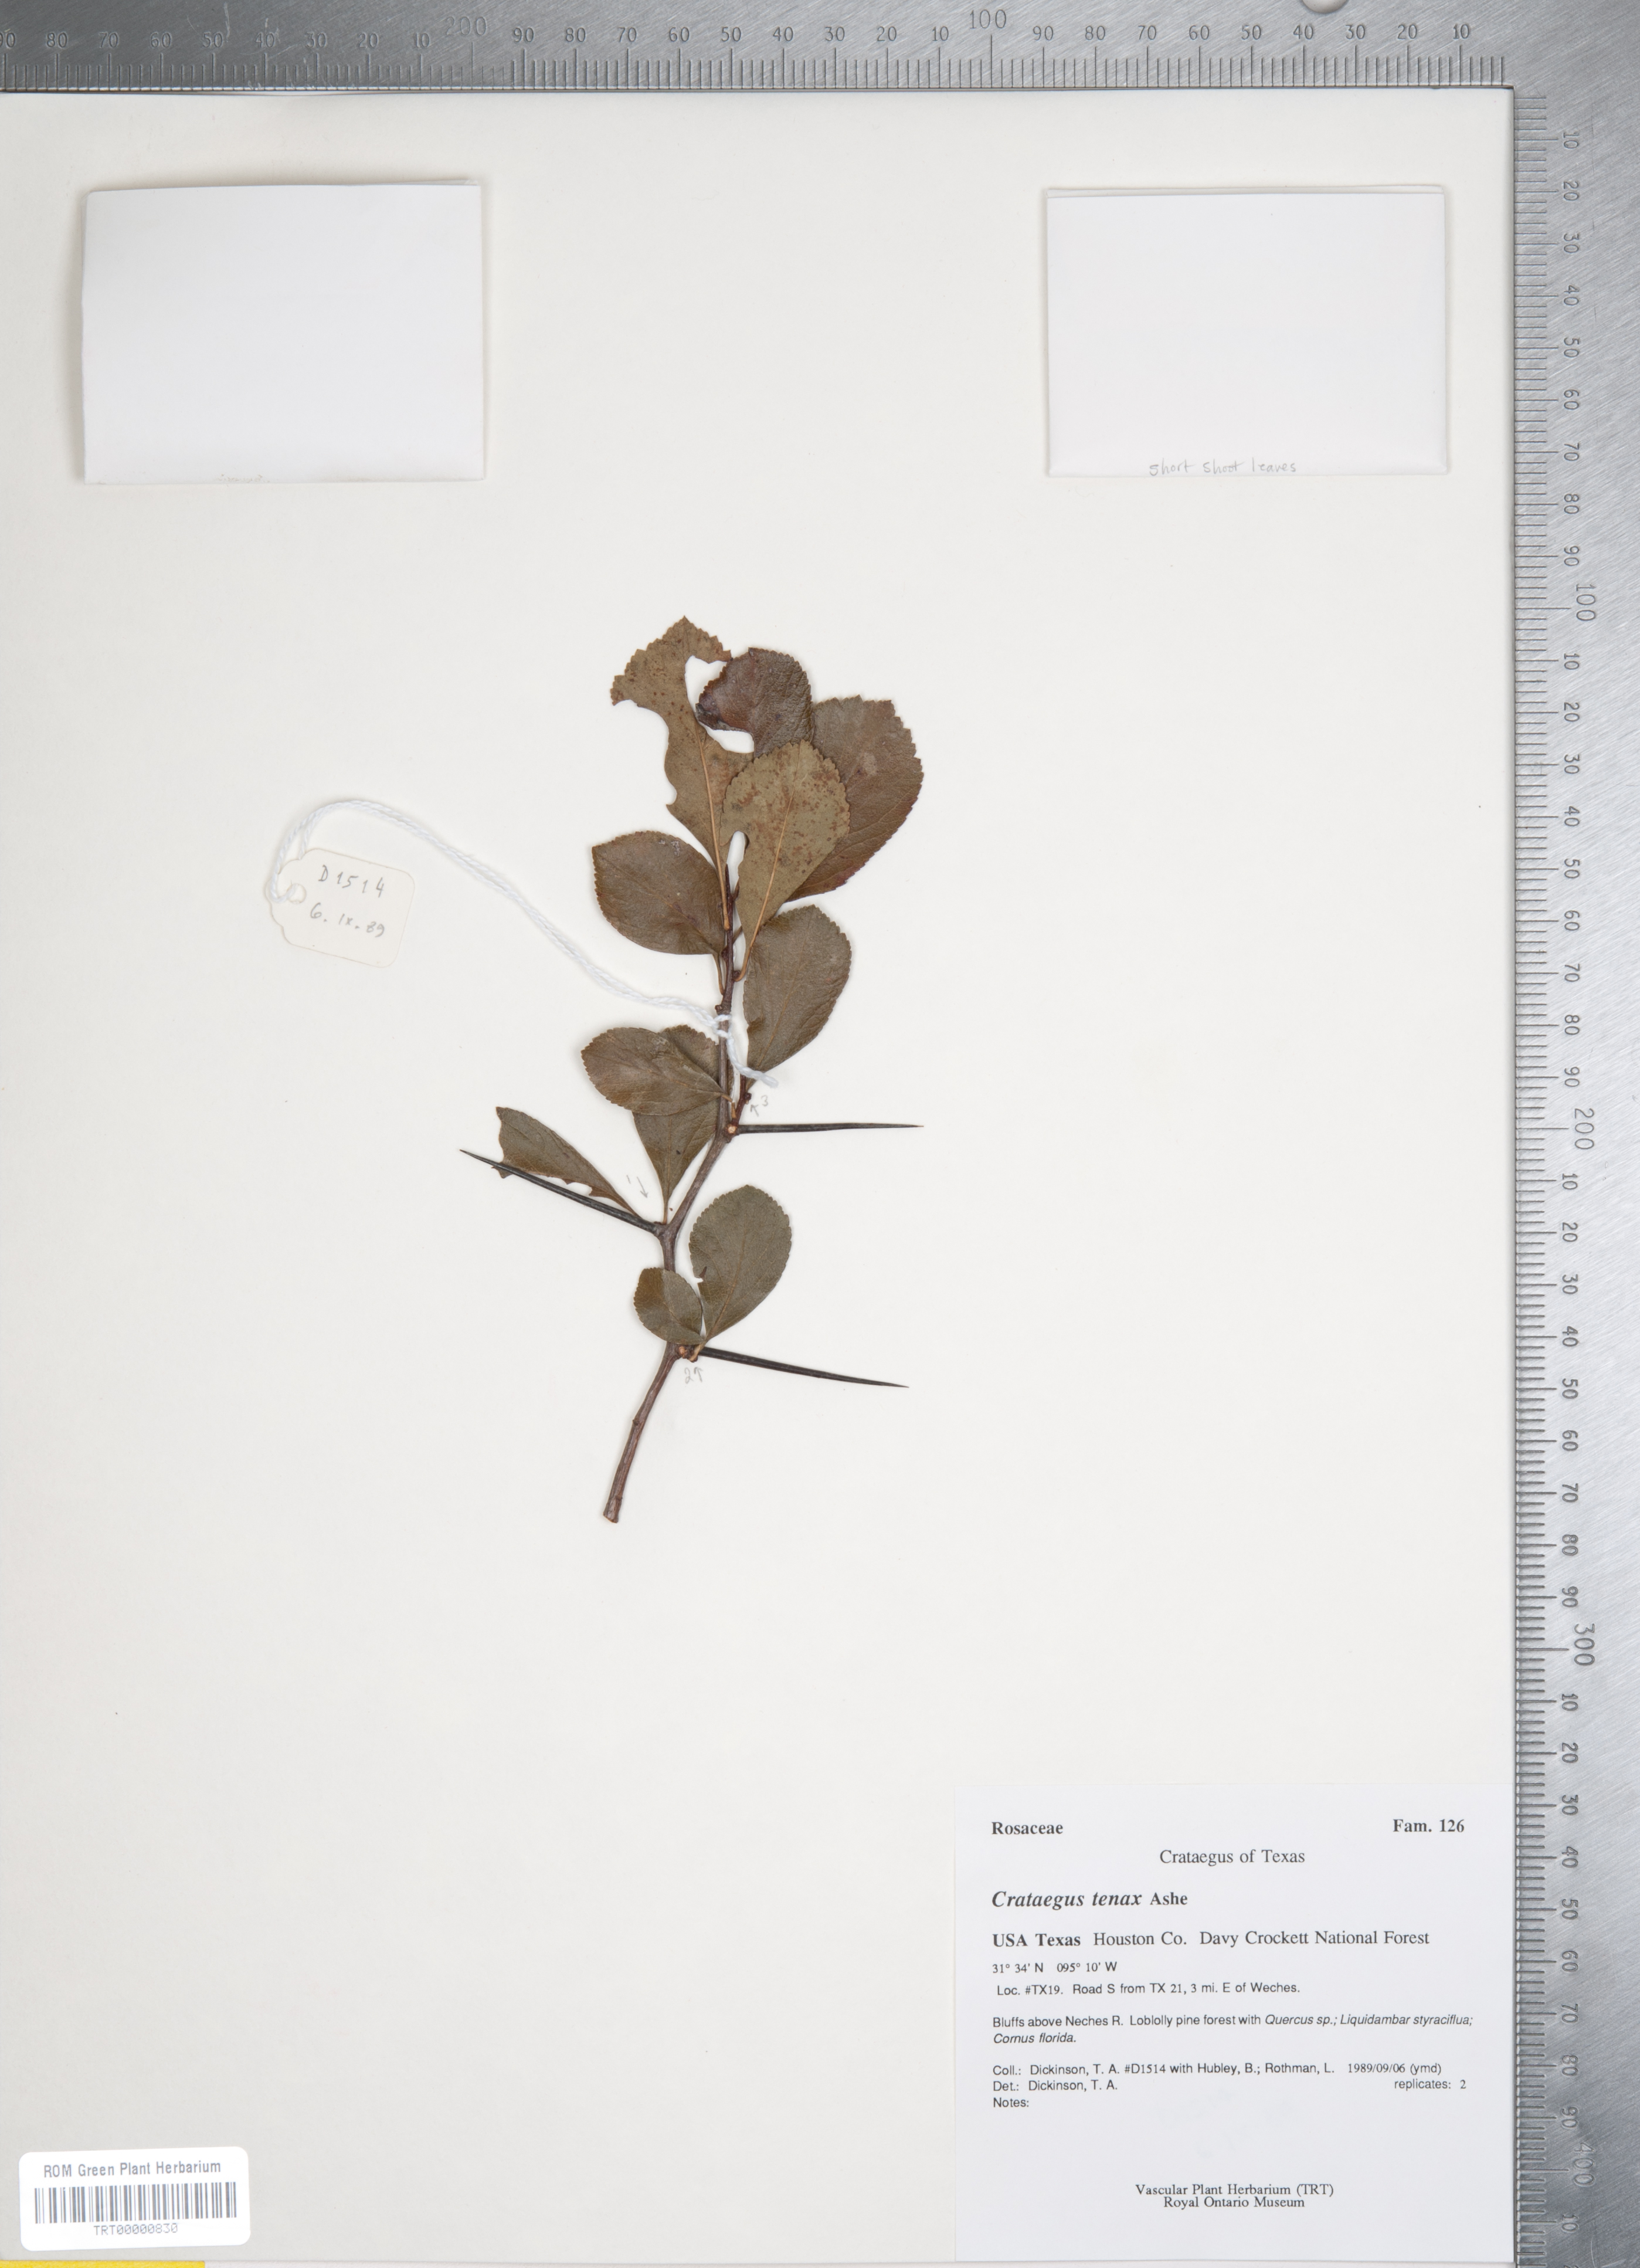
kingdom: Plantae
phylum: Tracheophyta
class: Magnoliopsida
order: Rosales
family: Rosaceae
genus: Crataegus
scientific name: Crataegus crus-galli
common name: Cockspurthorn
